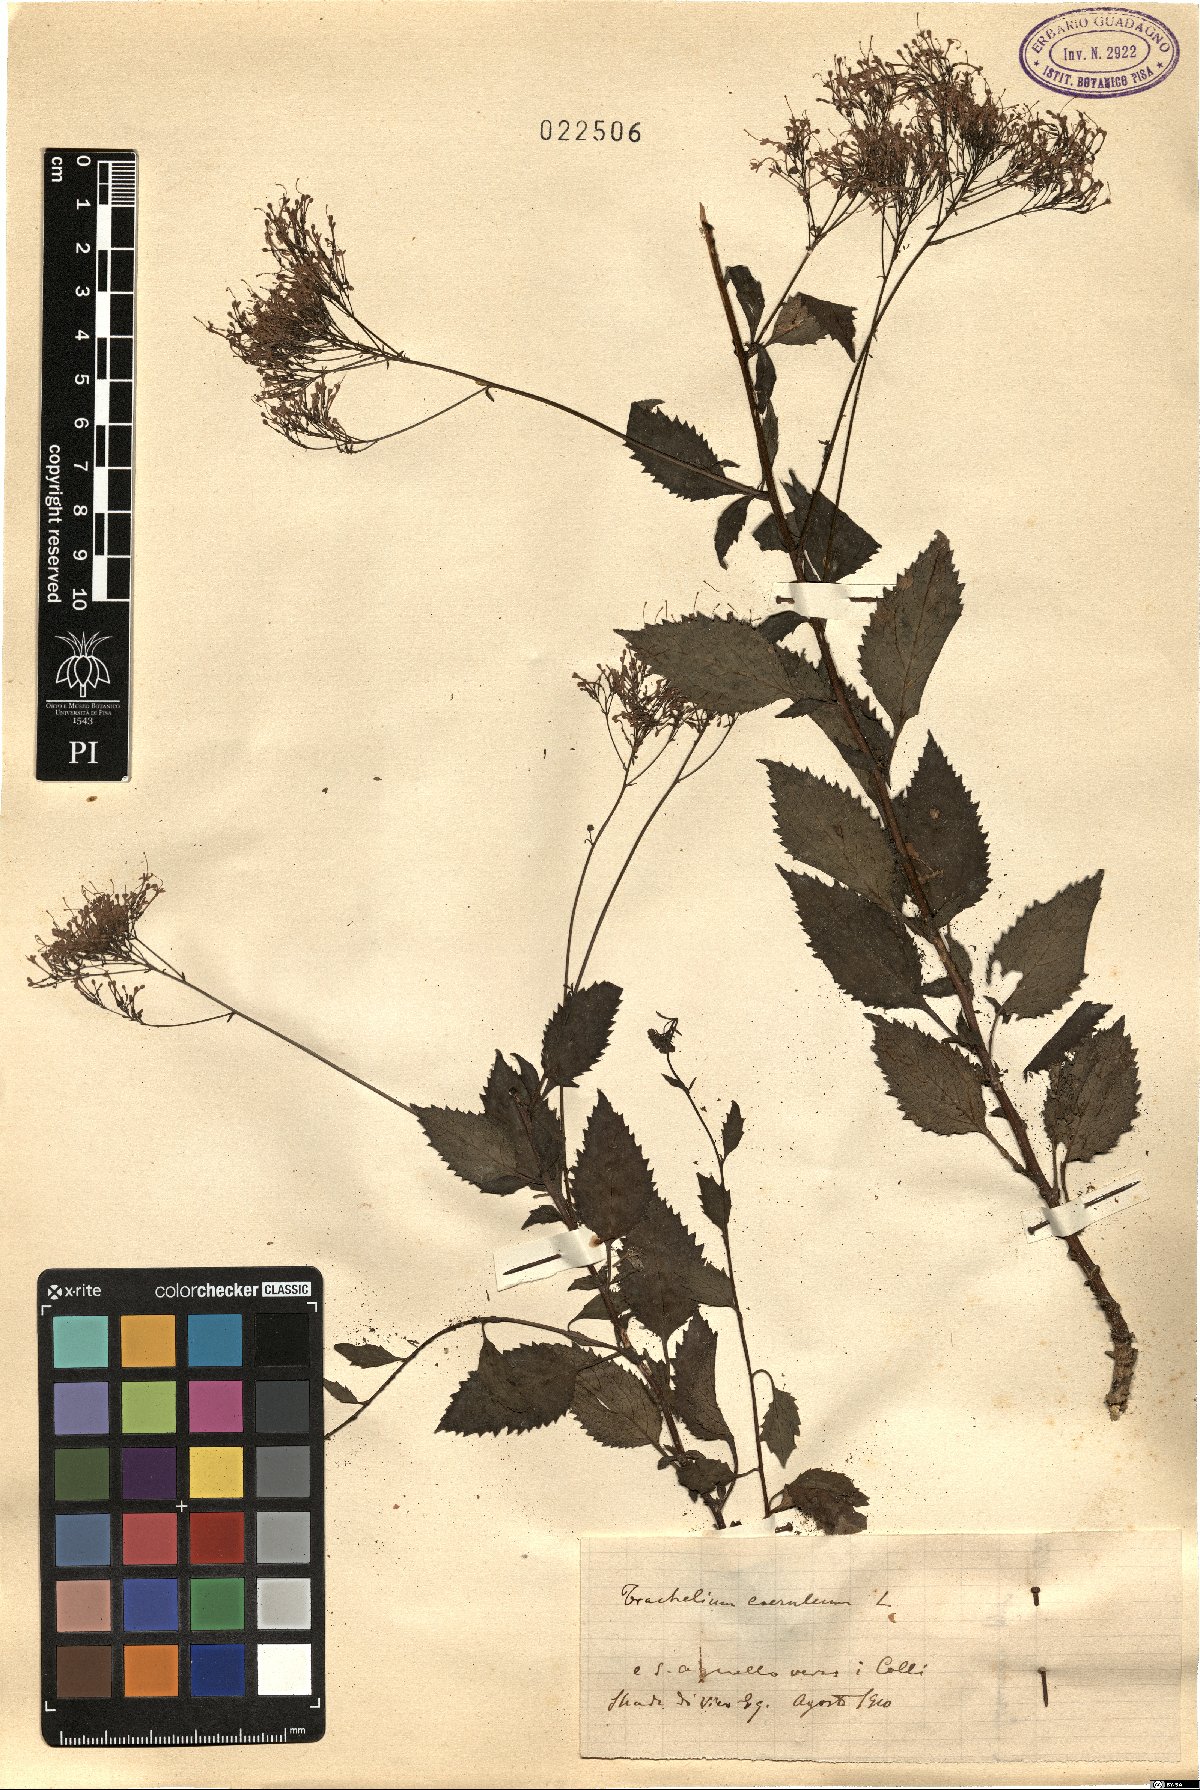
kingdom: Plantae
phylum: Tracheophyta
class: Magnoliopsida
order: Asterales
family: Campanulaceae
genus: Trachelium
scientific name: Trachelium caeruleum
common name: Throatwort
